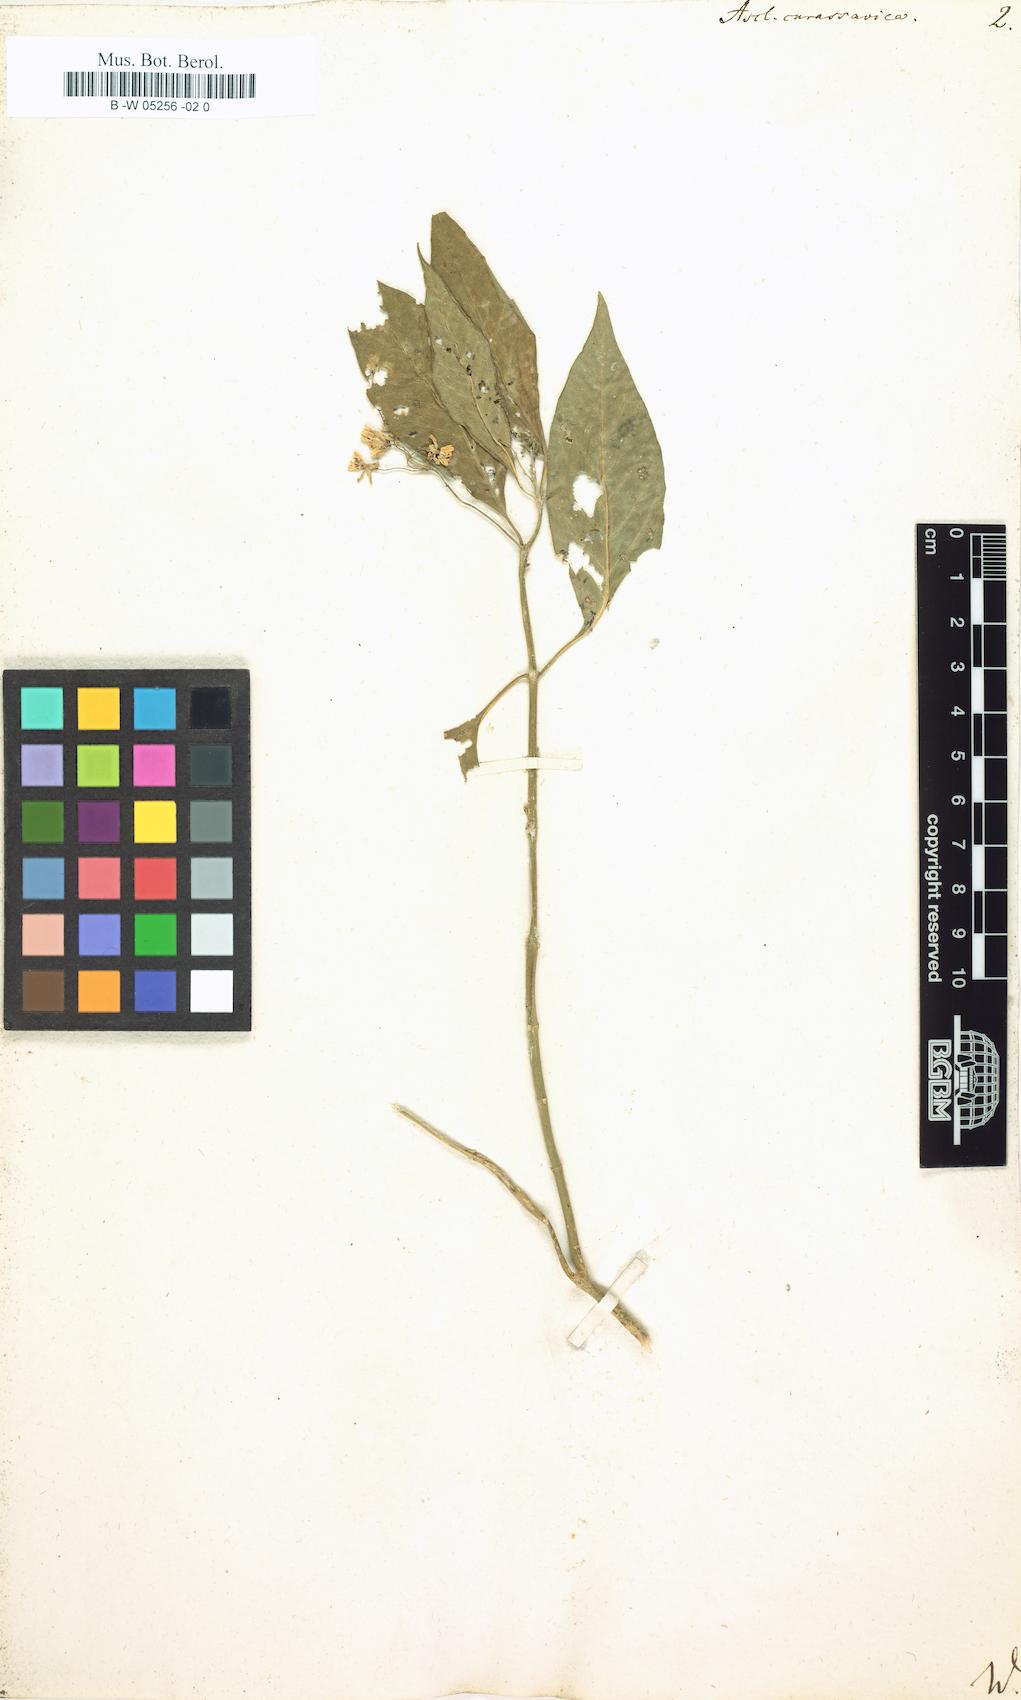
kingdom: Plantae
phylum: Tracheophyta
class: Magnoliopsida
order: Gentianales
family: Apocynaceae
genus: Asclepias
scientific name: Asclepias curassavica
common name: Bloodflower
